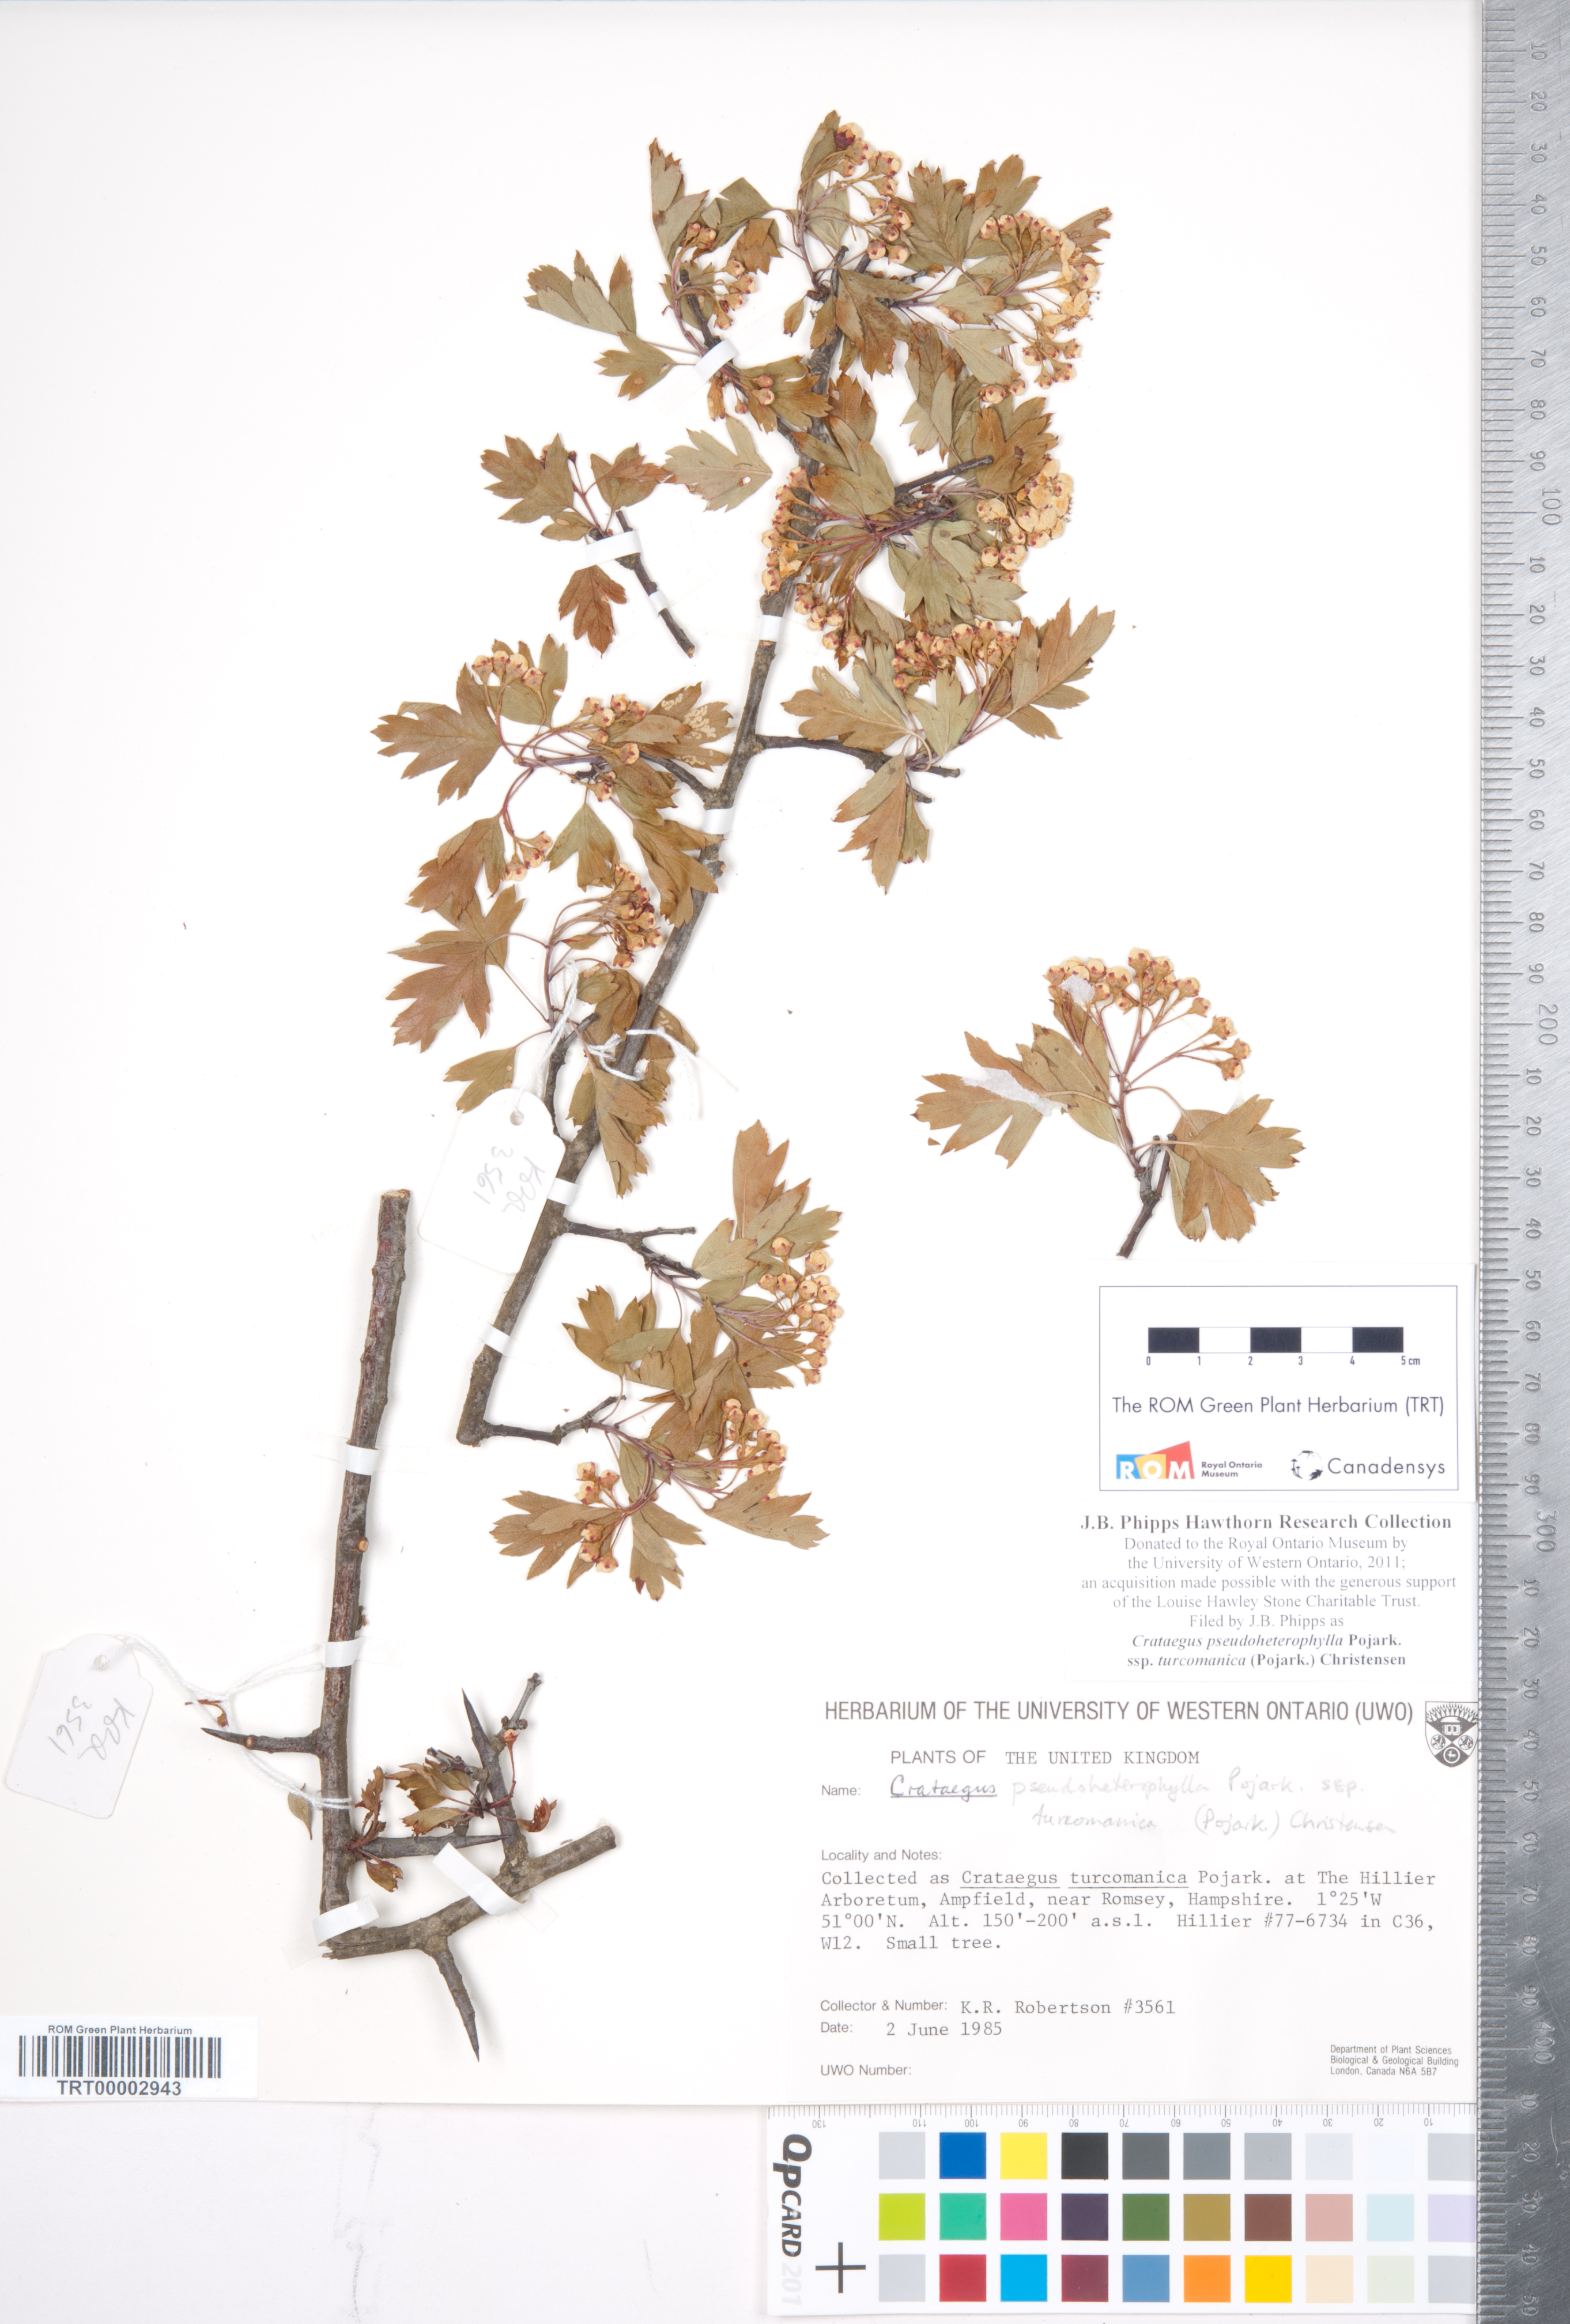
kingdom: Plantae
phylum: Tracheophyta
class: Magnoliopsida
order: Rosales
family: Rosaceae
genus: Crataegus
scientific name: Crataegus pseudoheterophylla
